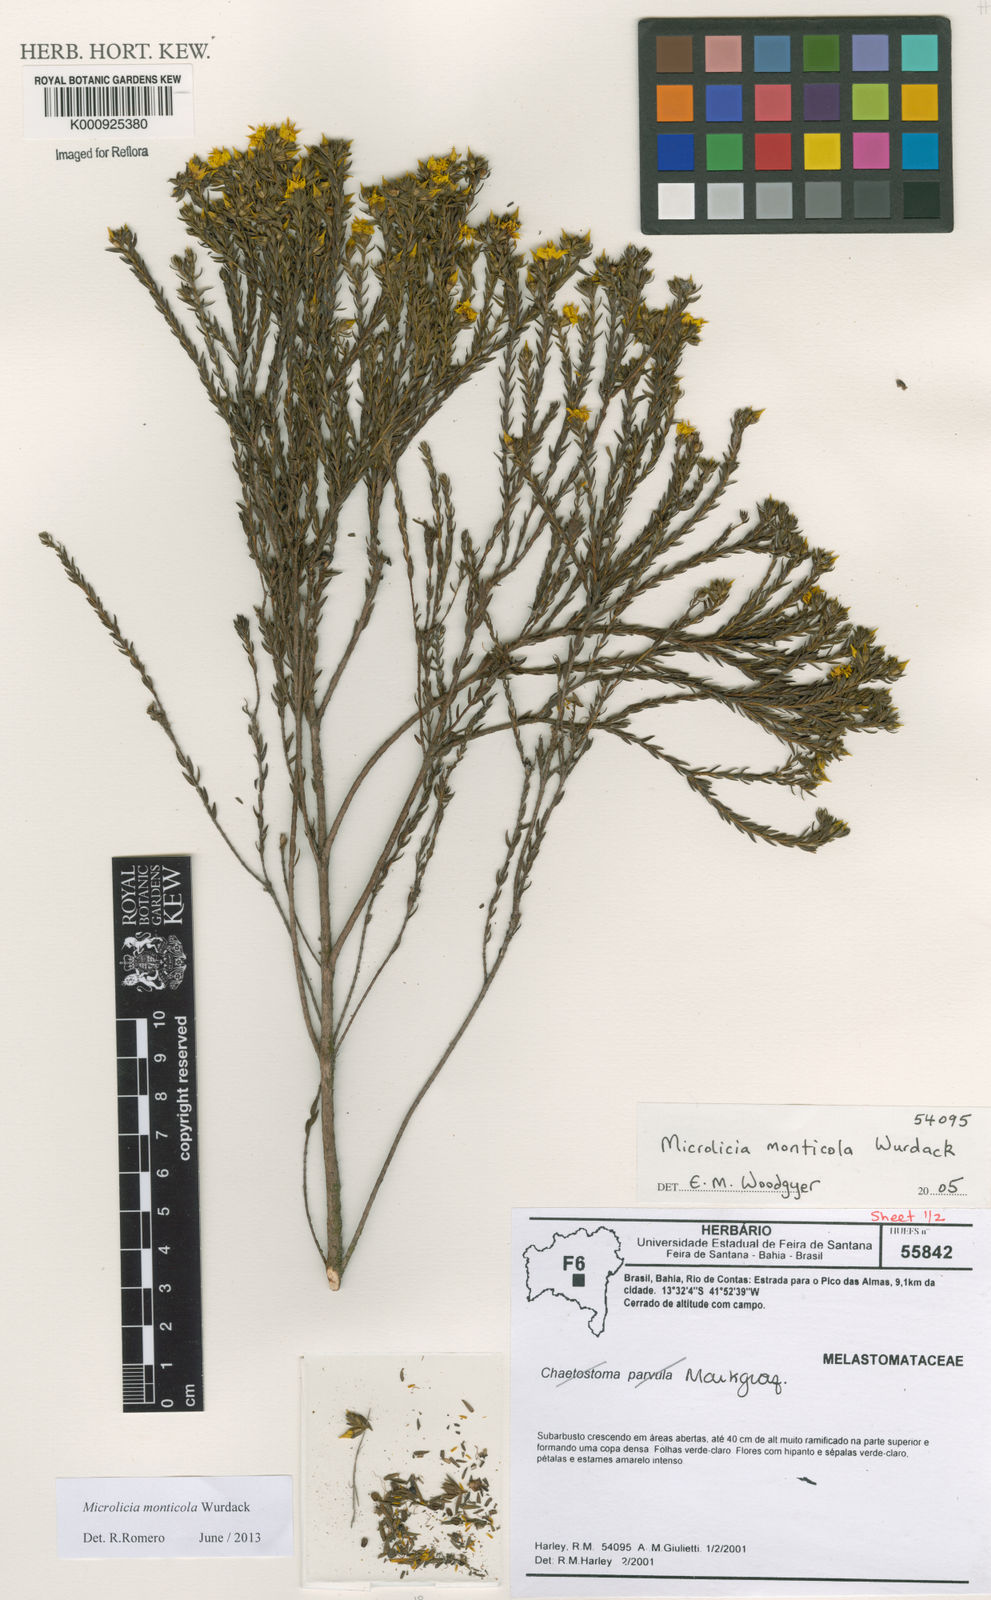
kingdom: Plantae
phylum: Tracheophyta
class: Magnoliopsida
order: Myrtales
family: Melastomataceae
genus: Microlicia
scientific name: Microlicia monticola
